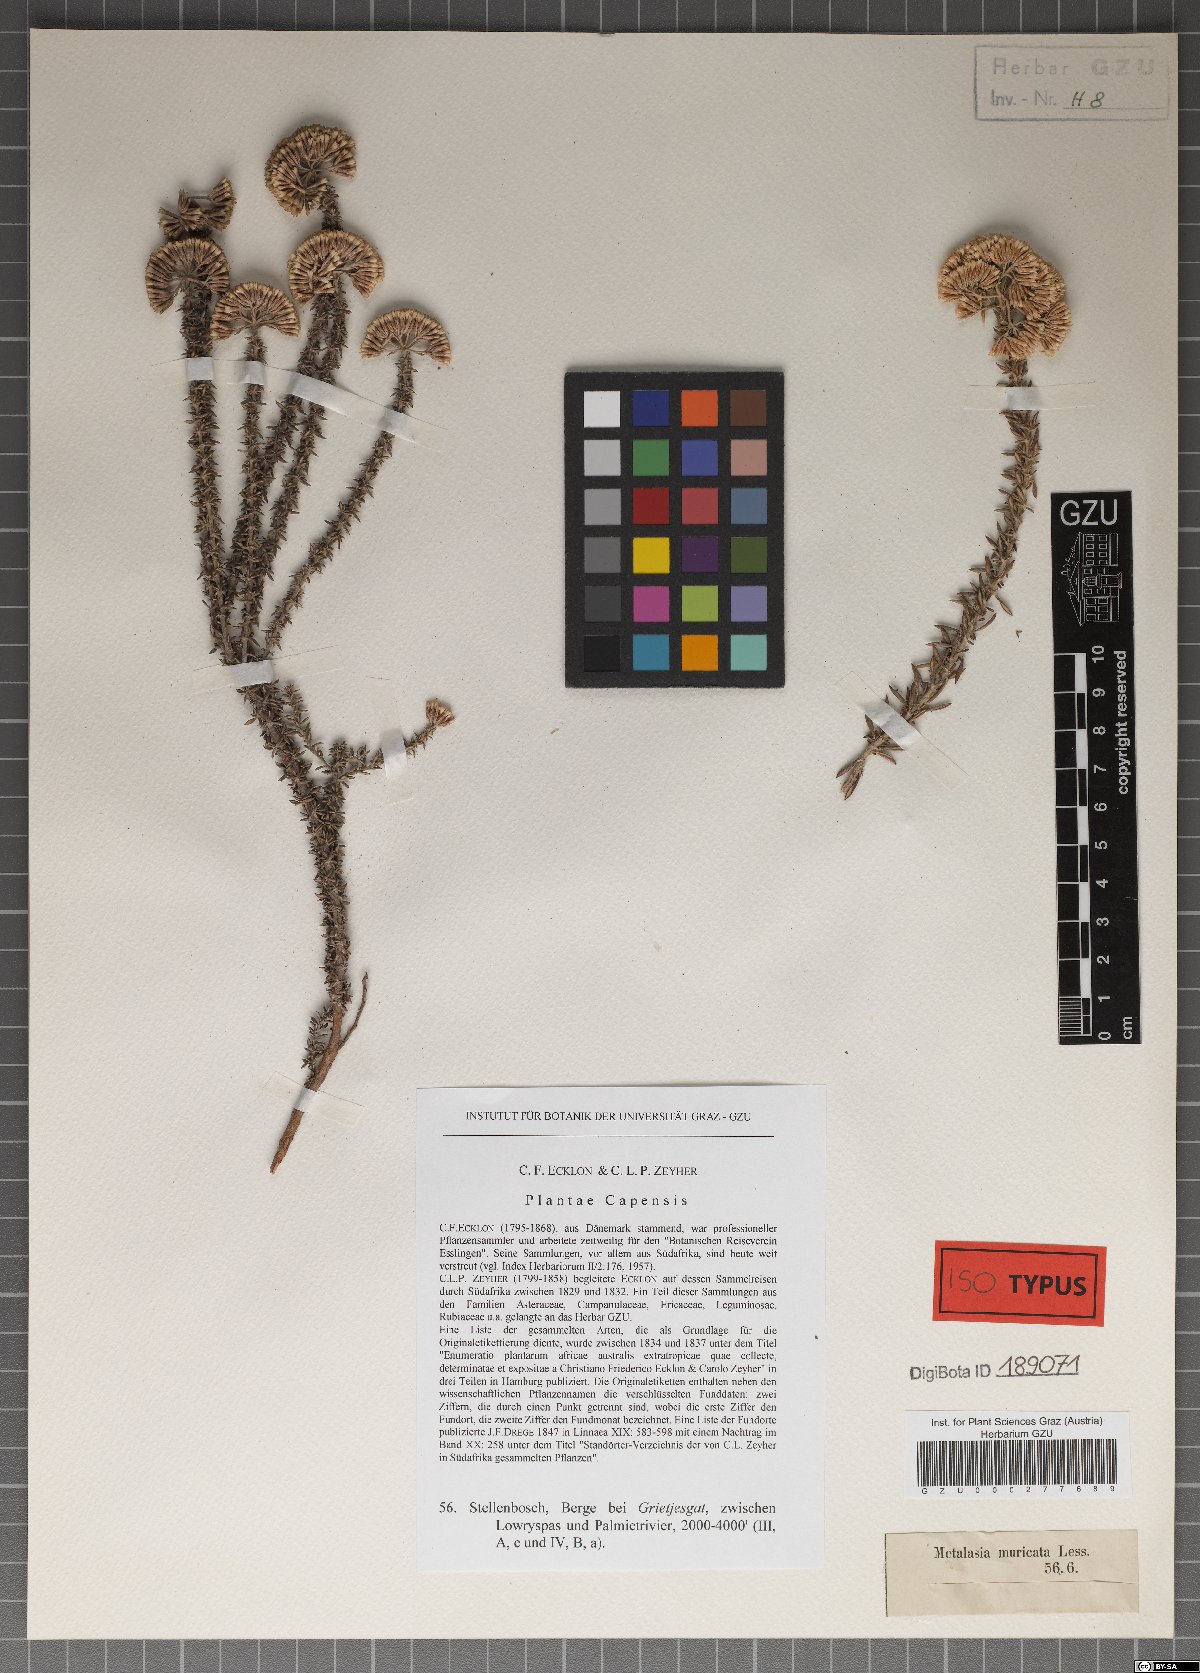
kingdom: Plantae
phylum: Tracheophyta
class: Magnoliopsida
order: Asterales
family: Asteraceae
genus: Metalasia
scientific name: Metalasia muricata
